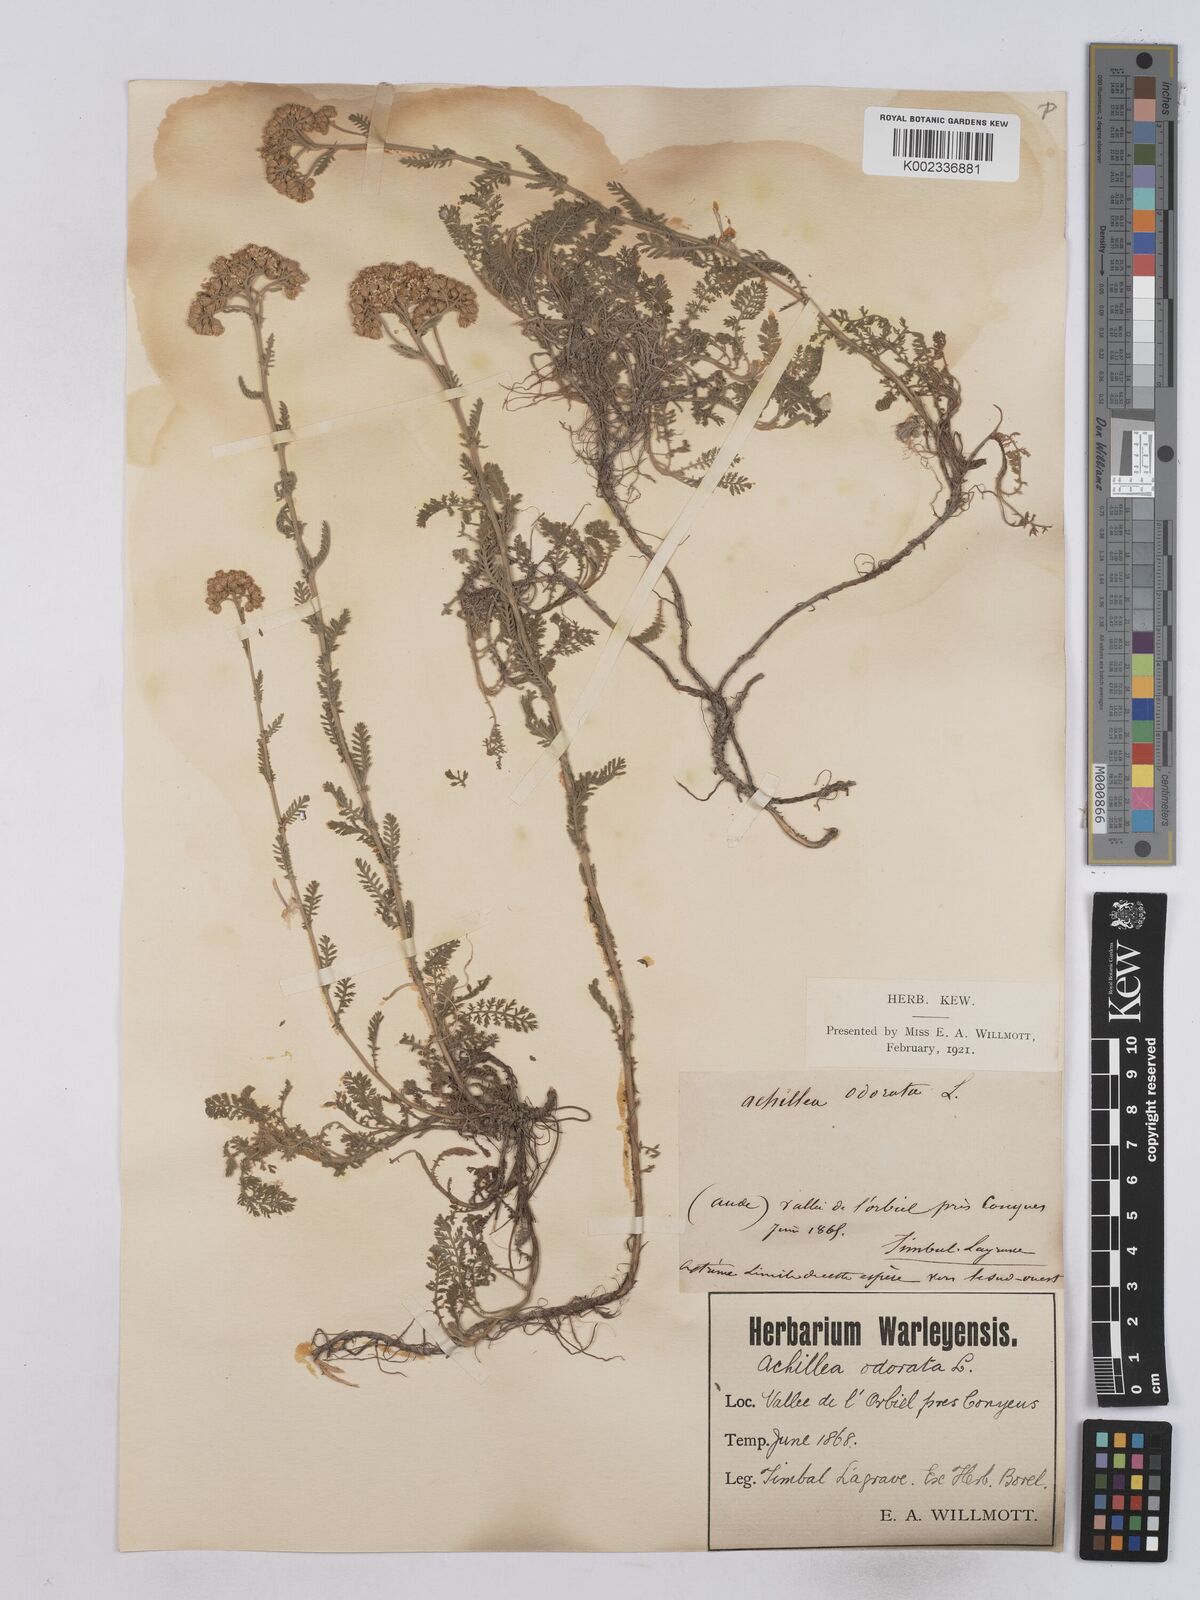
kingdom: Plantae
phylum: Tracheophyta
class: Magnoliopsida
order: Asterales
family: Asteraceae
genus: Achillea
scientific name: Achillea odorata
